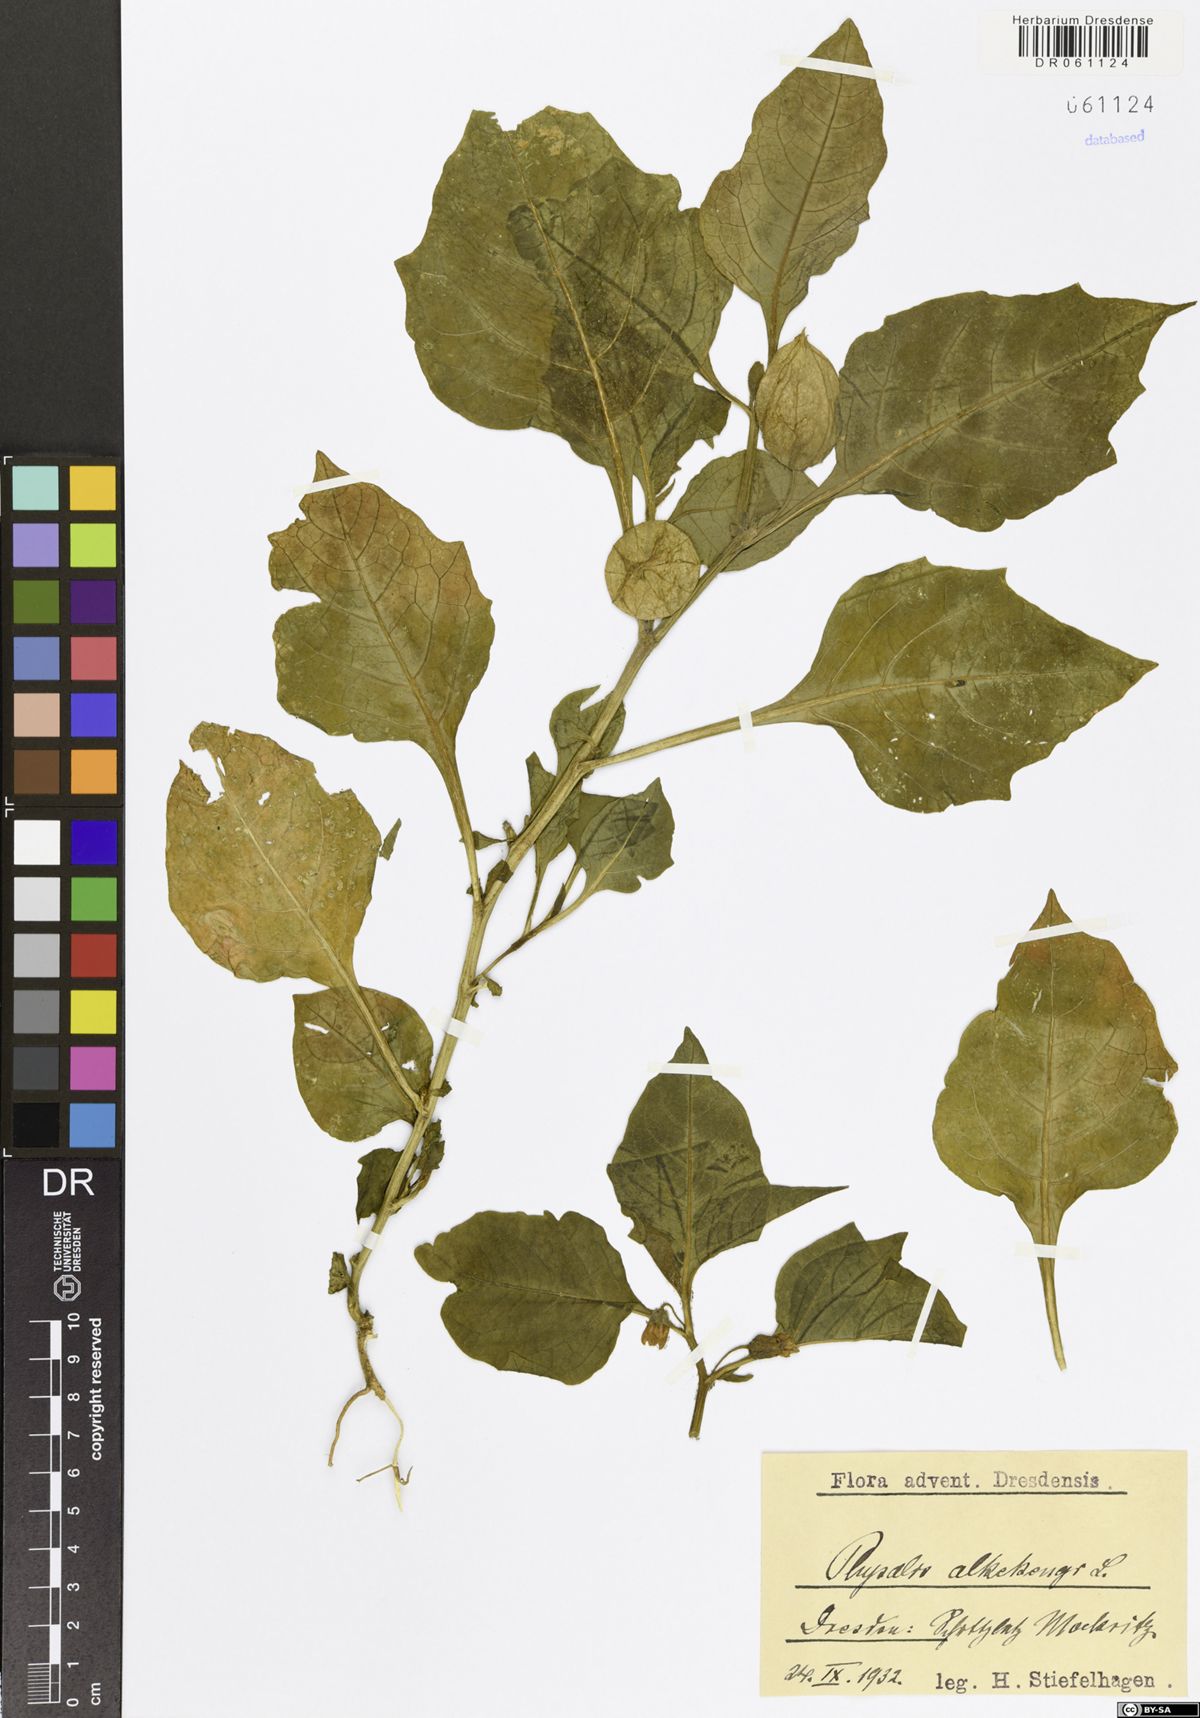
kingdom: Plantae
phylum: Tracheophyta
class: Magnoliopsida
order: Solanales
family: Solanaceae
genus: Alkekengi
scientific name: Alkekengi officinarum
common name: Japanese-lantern
